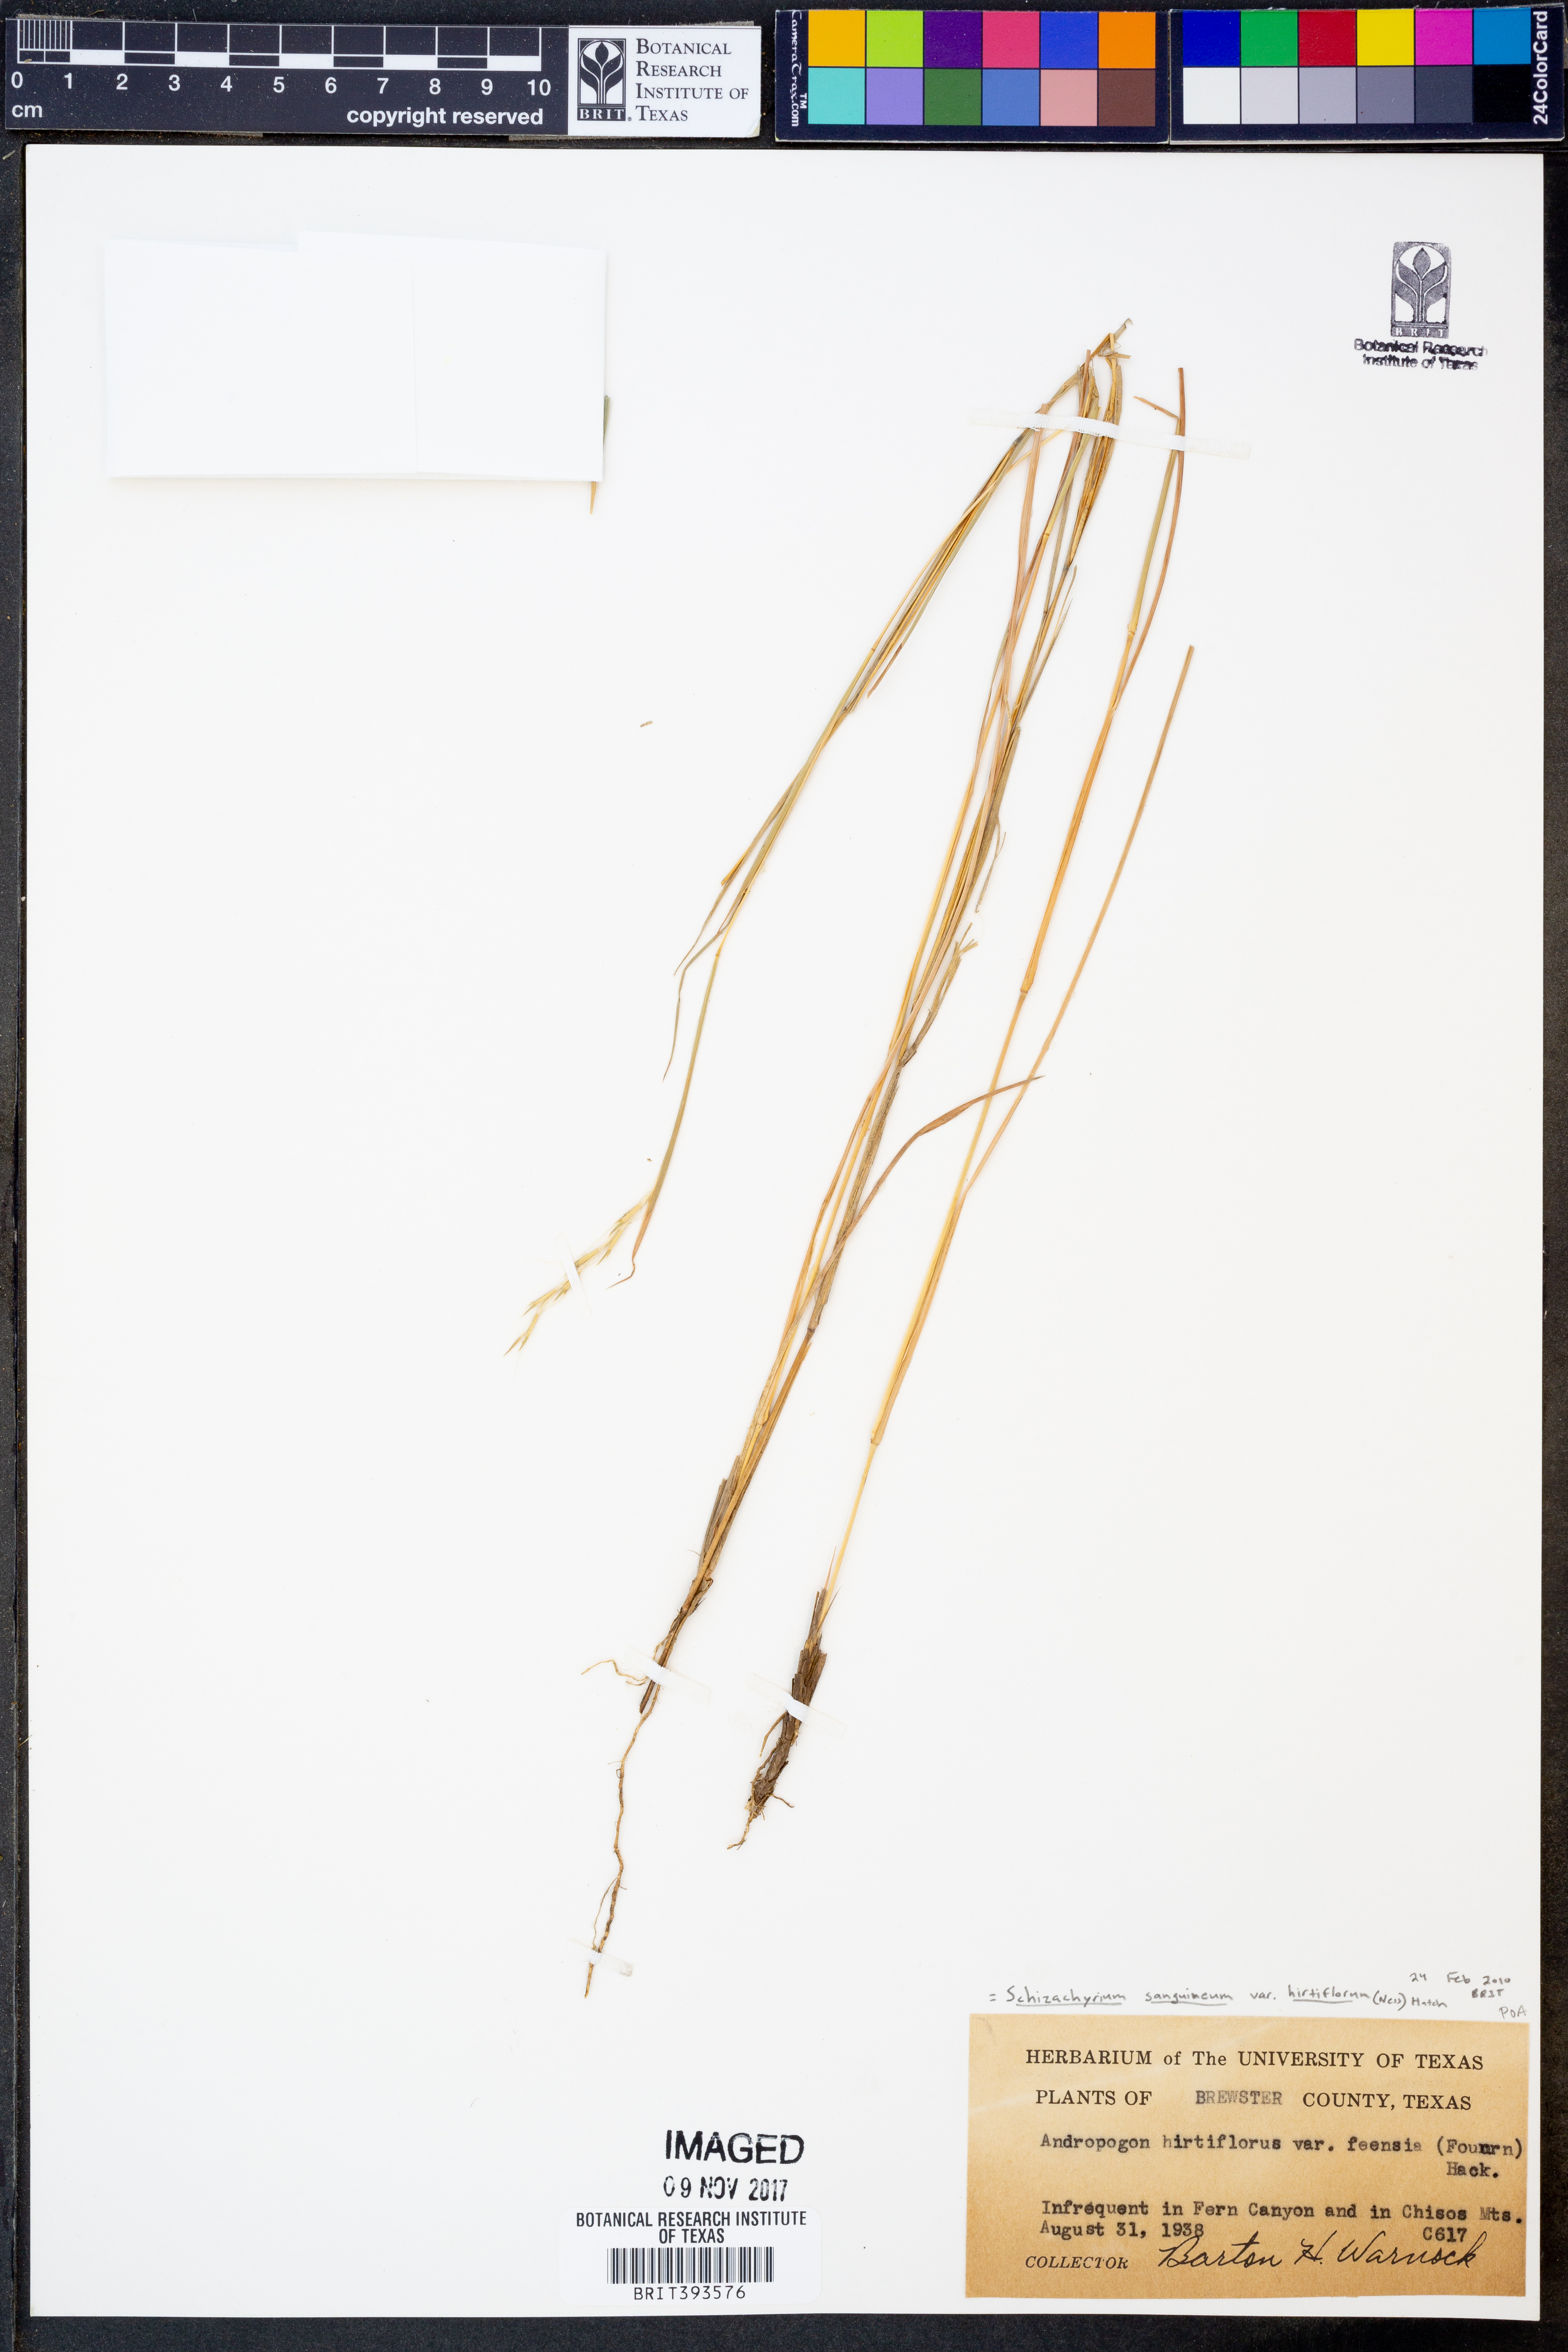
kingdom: Plantae
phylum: Tracheophyta
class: Liliopsida
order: Poales
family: Poaceae
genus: Schizachyrium
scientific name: Schizachyrium sanguineum
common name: Crimson bluestem
